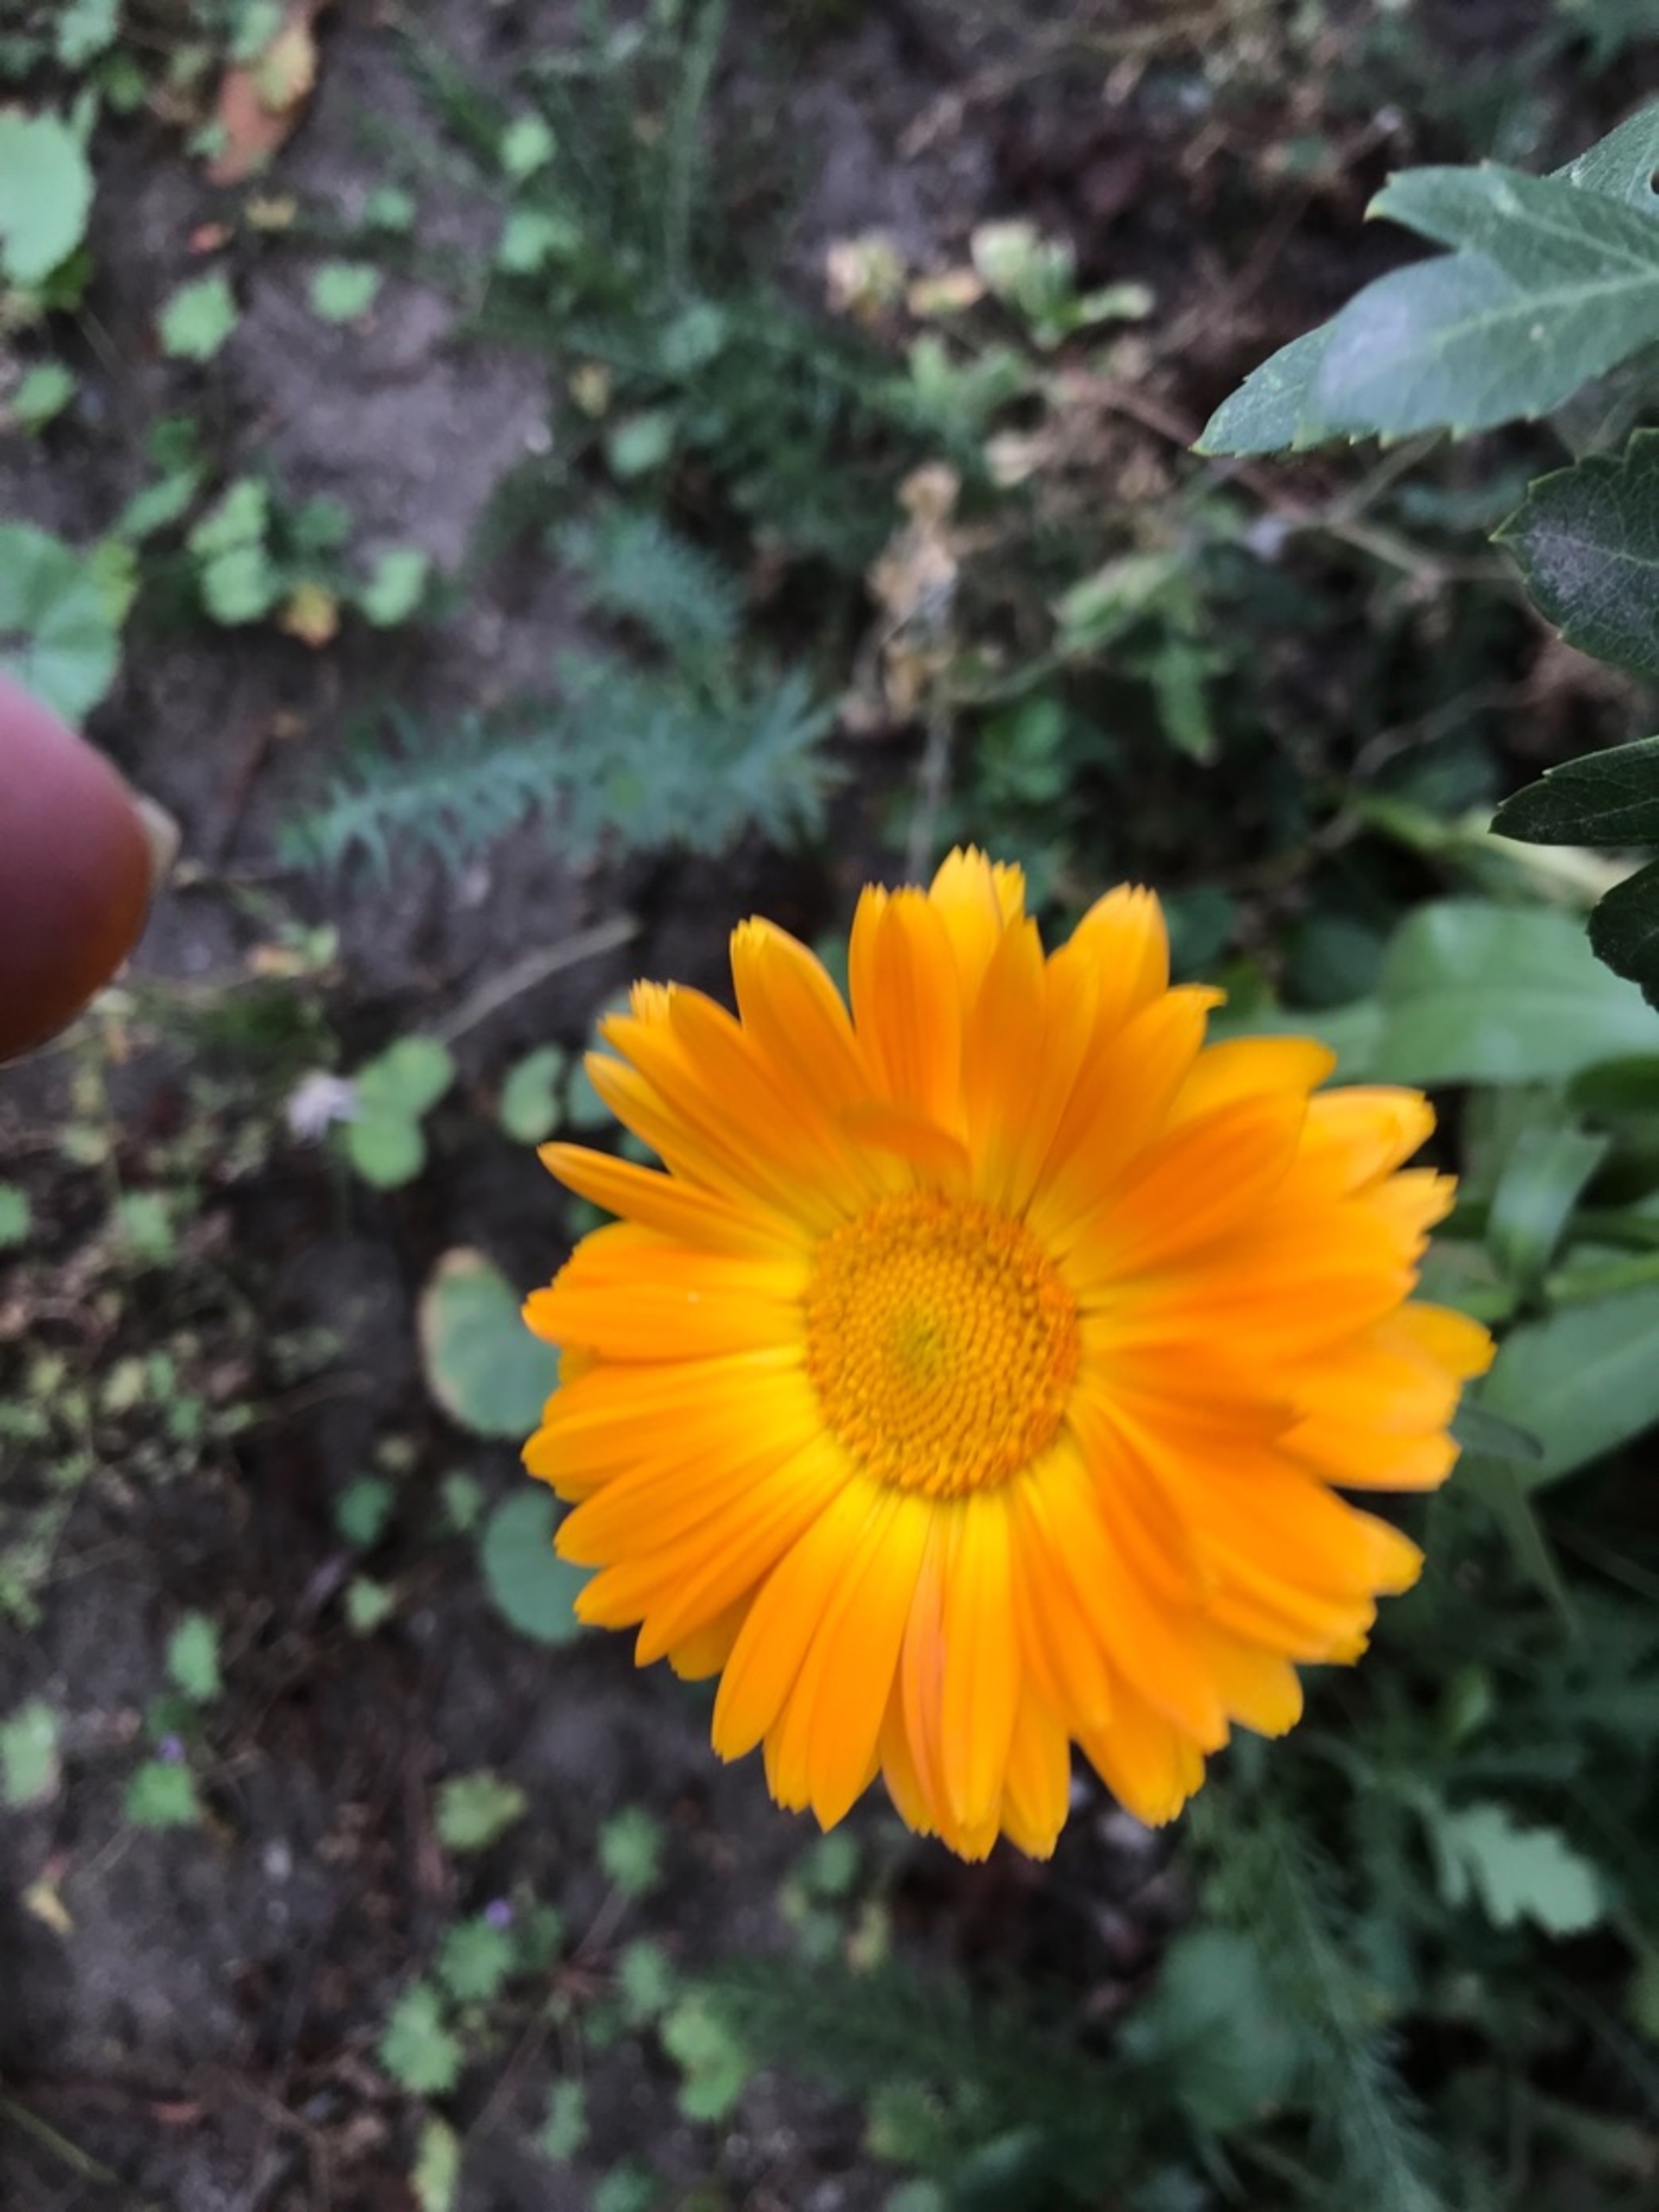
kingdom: Plantae
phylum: Tracheophyta
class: Magnoliopsida
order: Asterales
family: Asteraceae
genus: Calendula
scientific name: Calendula officinalis
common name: Have-morgenfrue
